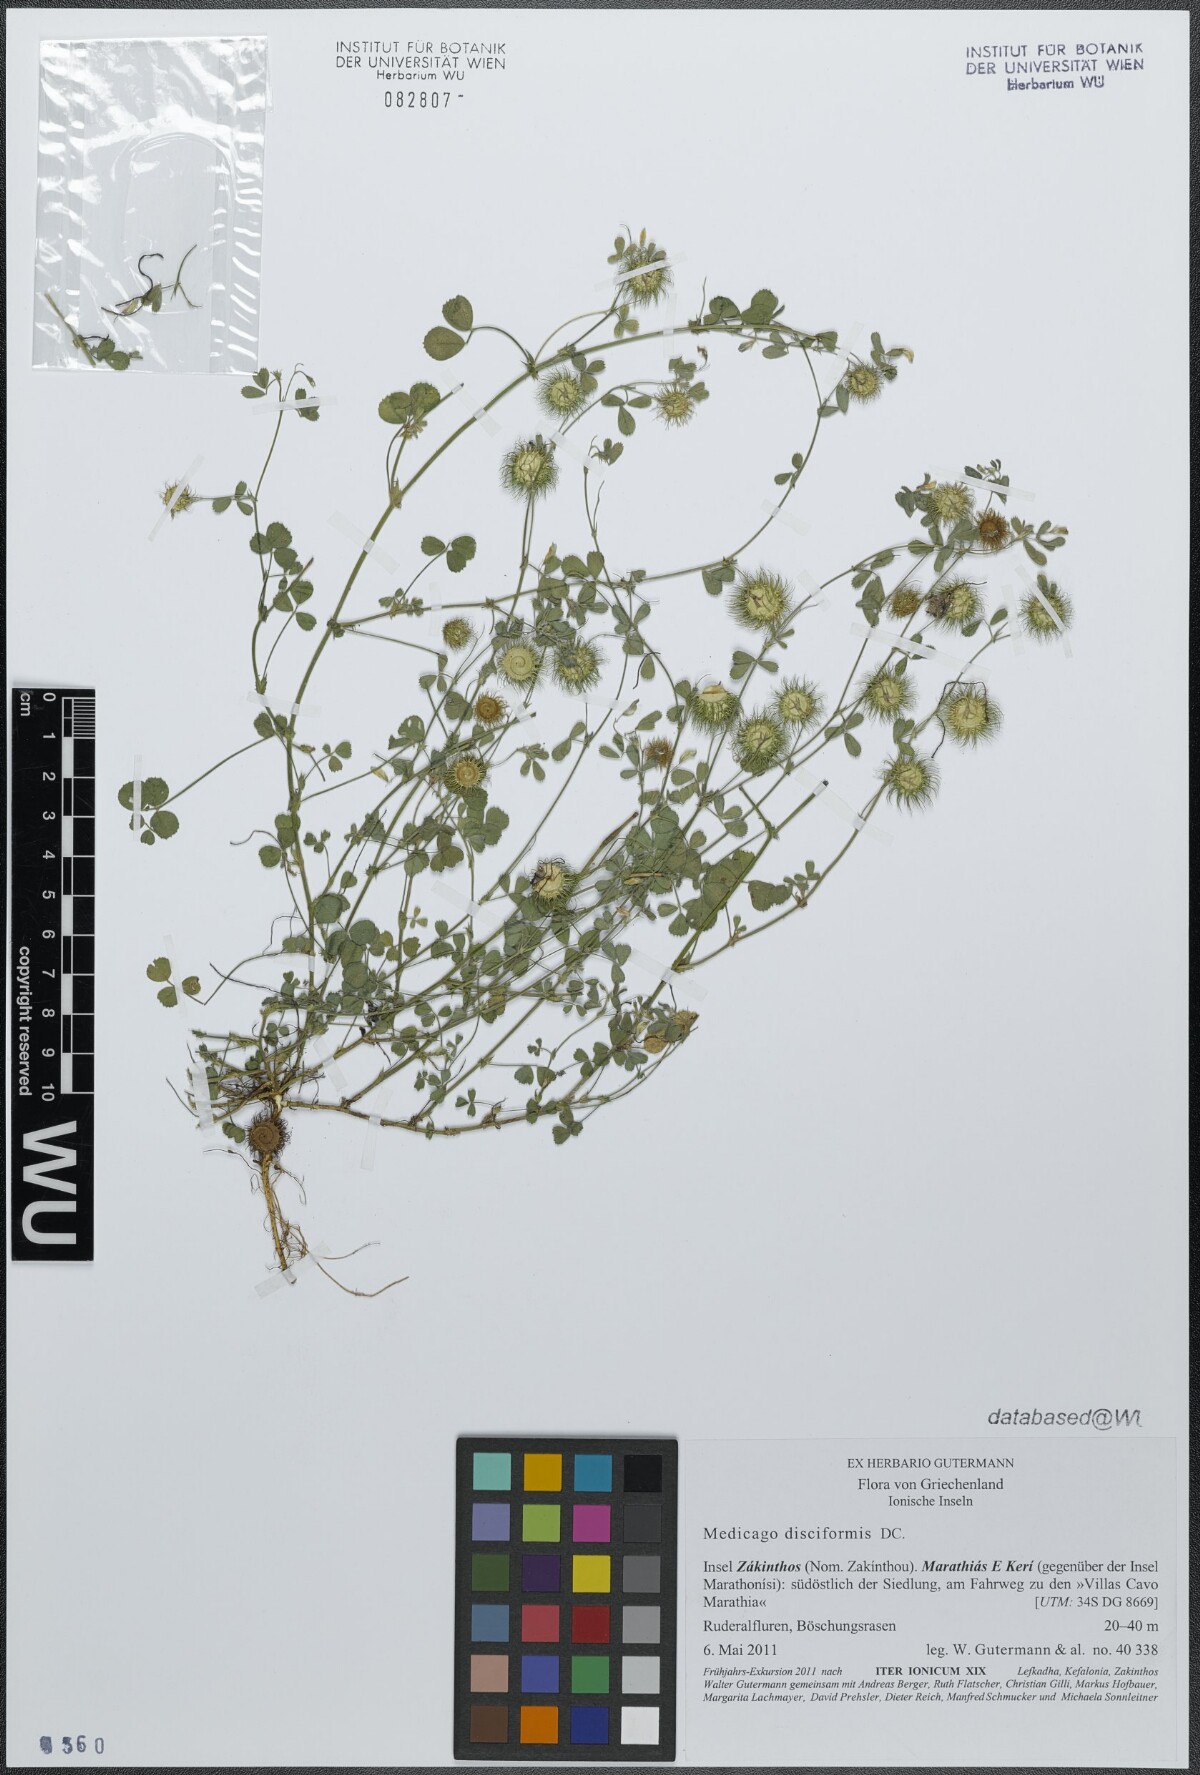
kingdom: Plantae
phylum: Tracheophyta
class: Magnoliopsida
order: Fabales
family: Fabaceae
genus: Medicago
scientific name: Medicago disciformis
